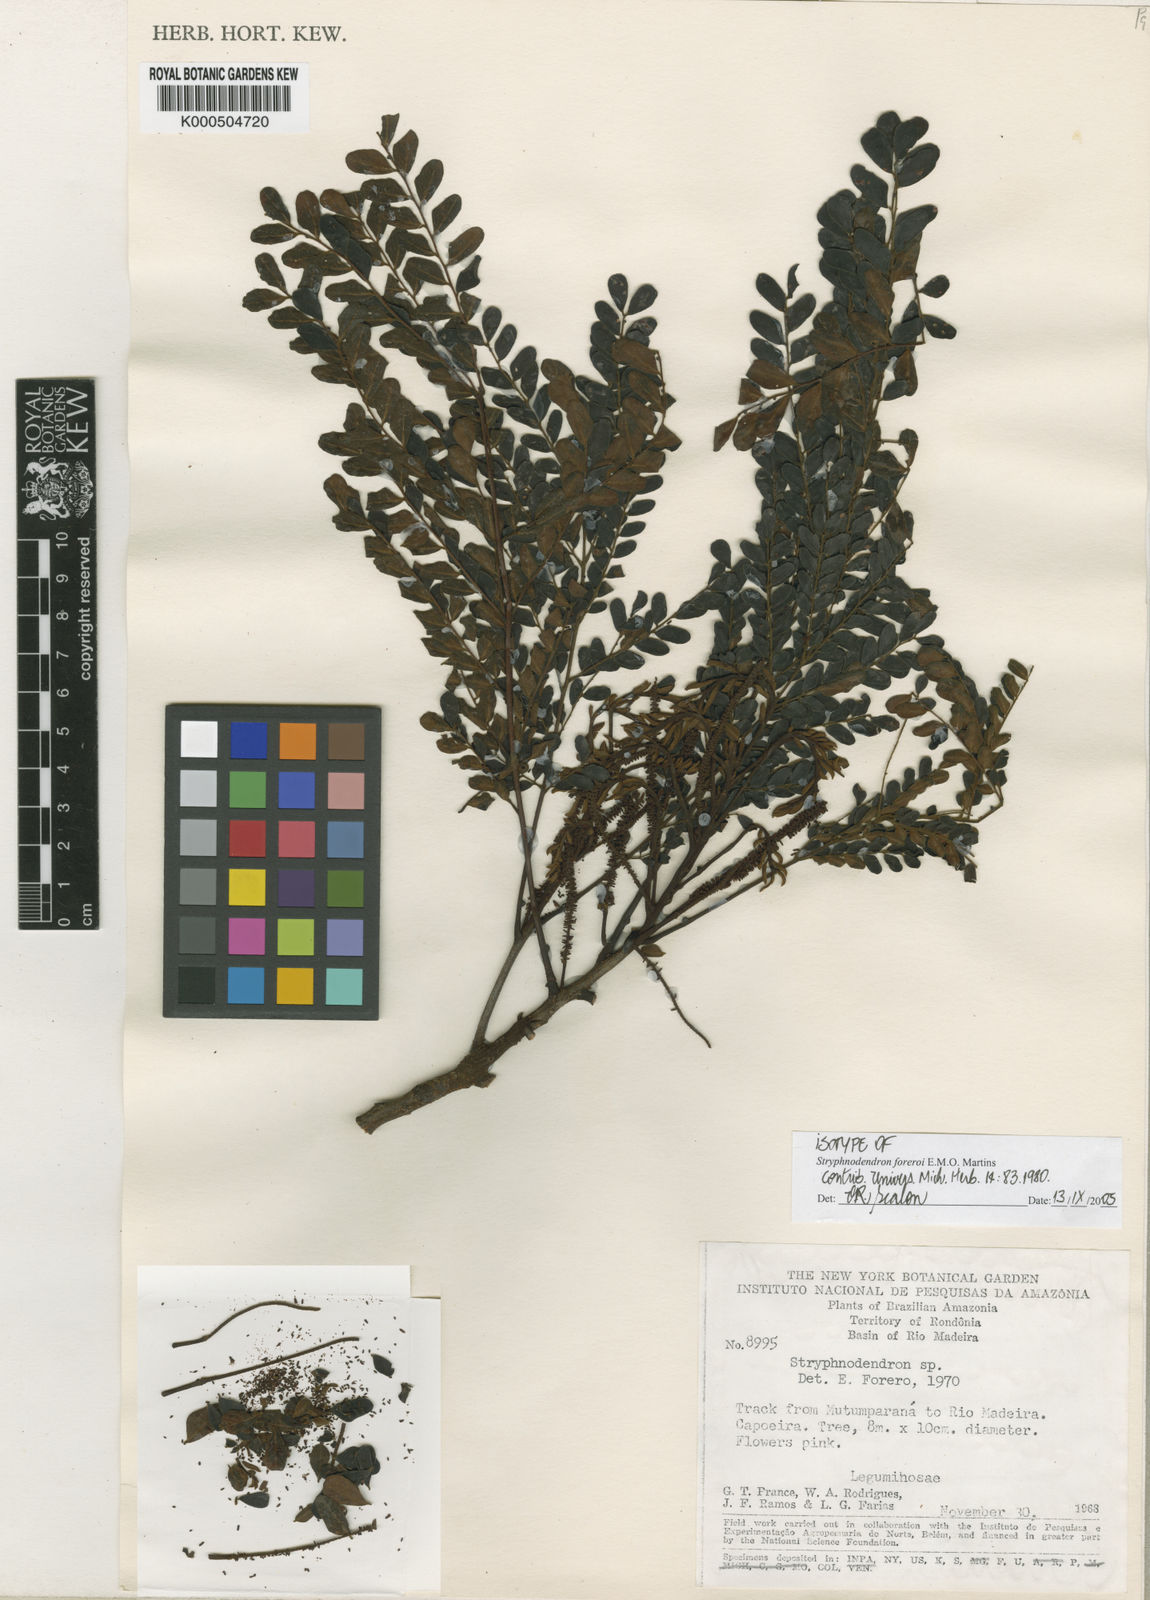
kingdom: Plantae
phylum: Tracheophyta
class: Magnoliopsida
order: Fabales
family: Fabaceae
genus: Stryphnodendron
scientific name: Stryphnodendron foreroi
